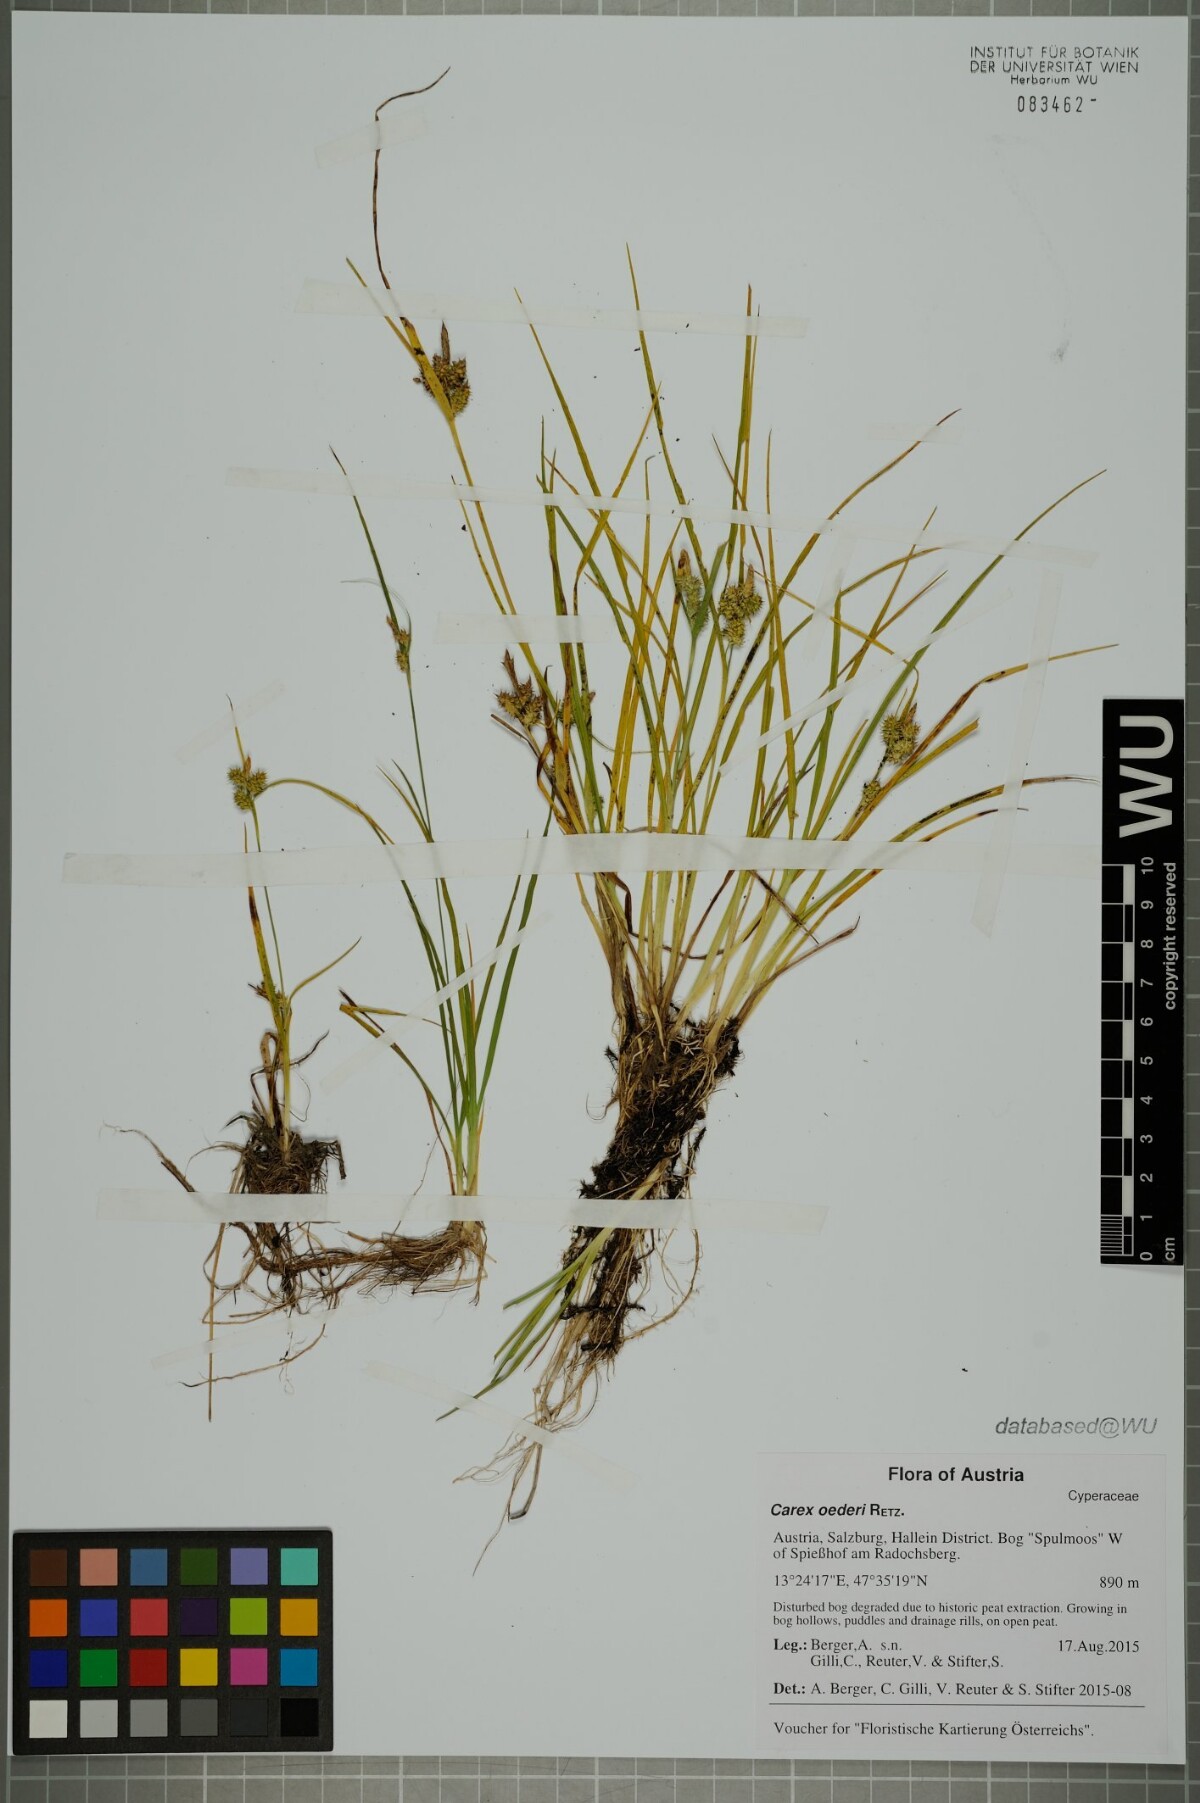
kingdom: Plantae
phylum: Tracheophyta
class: Liliopsida
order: Poales
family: Cyperaceae
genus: Carex
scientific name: Carex oederi
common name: Common & small-fruited yellow-sedge
